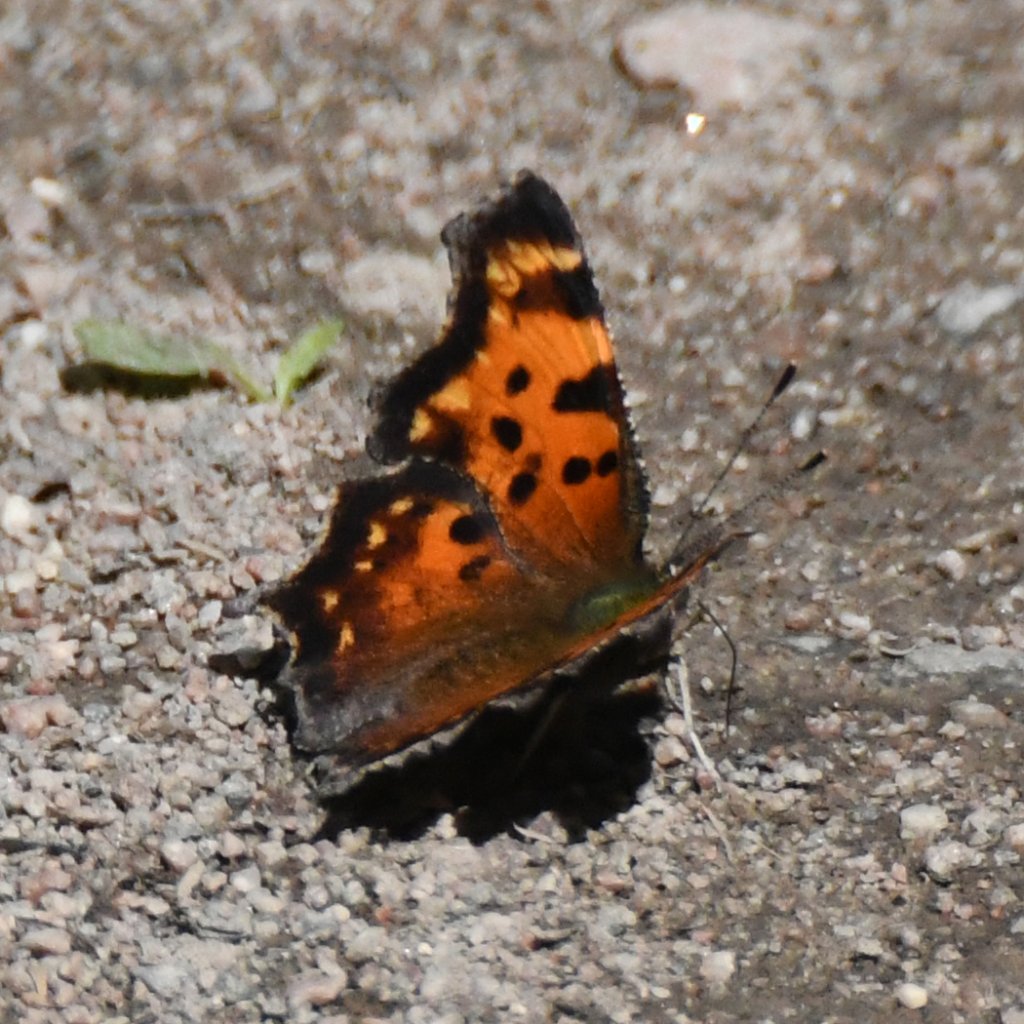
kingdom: Animalia
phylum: Arthropoda
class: Insecta
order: Lepidoptera
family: Nymphalidae
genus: Polygonia
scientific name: Polygonia faunus
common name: Green Comma
